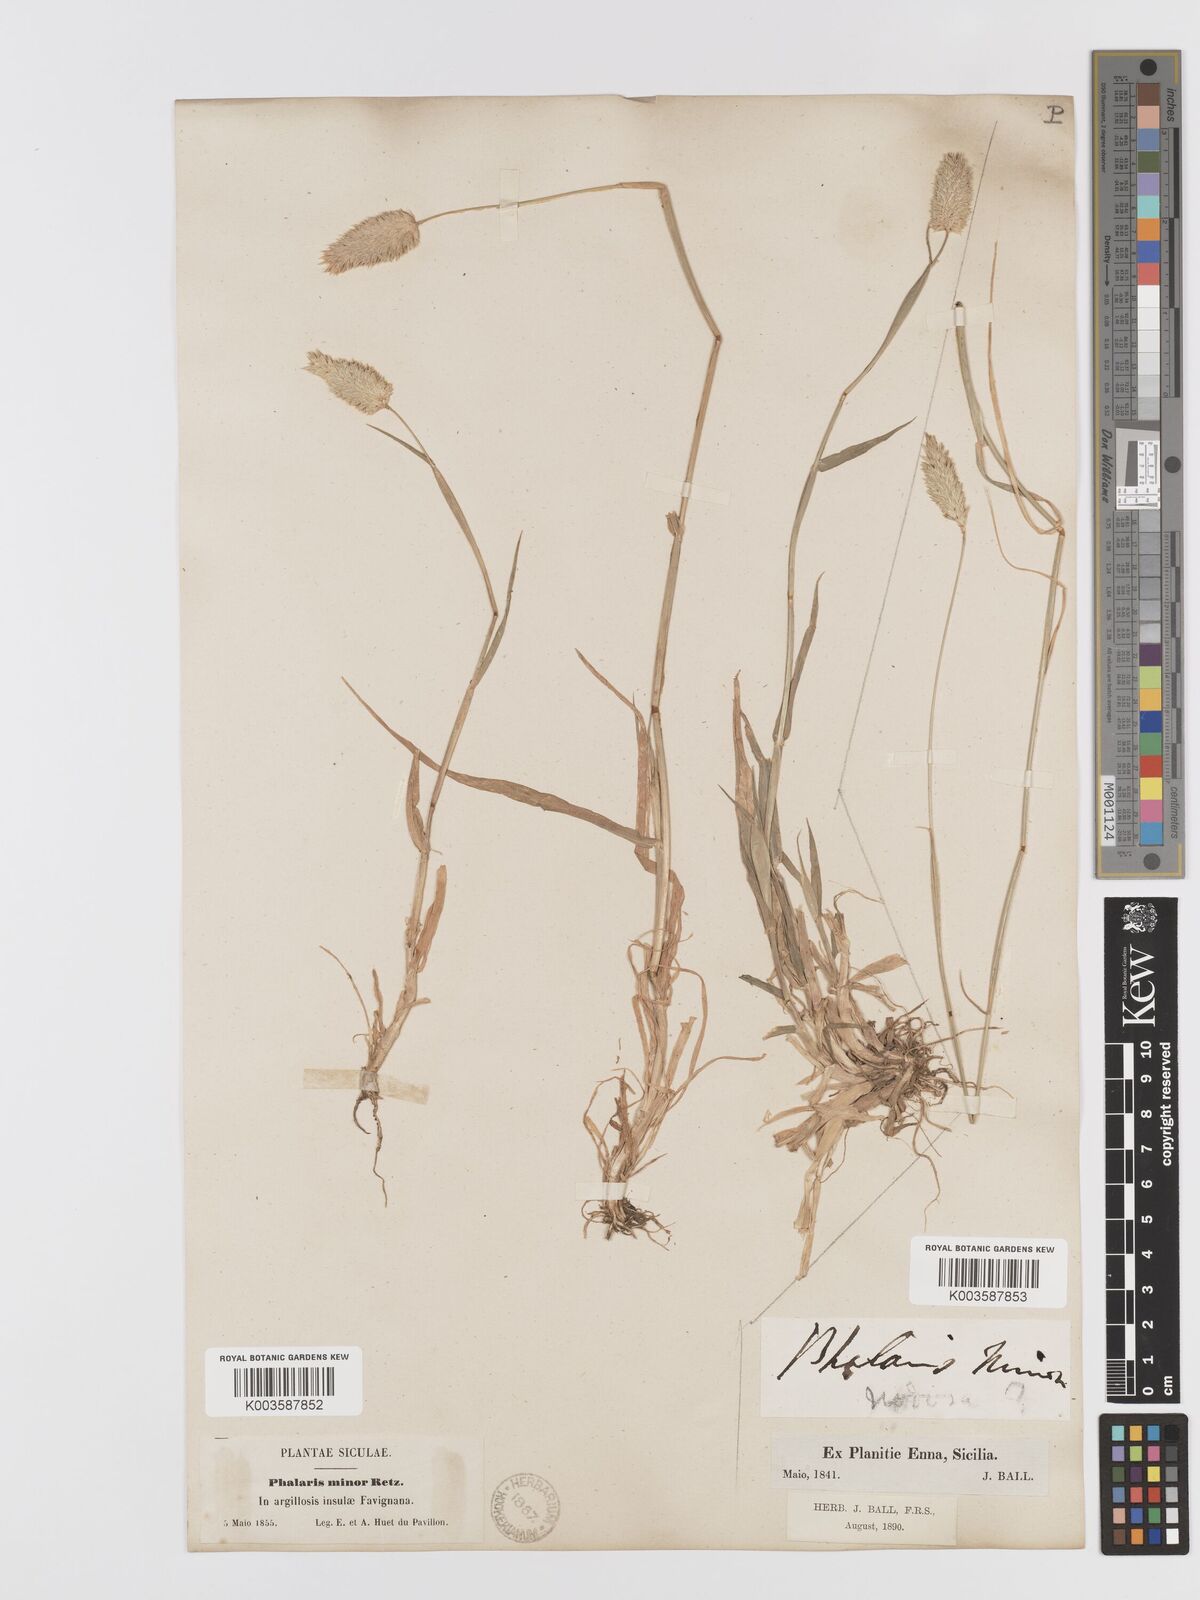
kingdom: Plantae
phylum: Tracheophyta
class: Liliopsida
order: Poales
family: Poaceae
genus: Phalaris
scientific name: Phalaris minor
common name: Littleseed canarygrass
